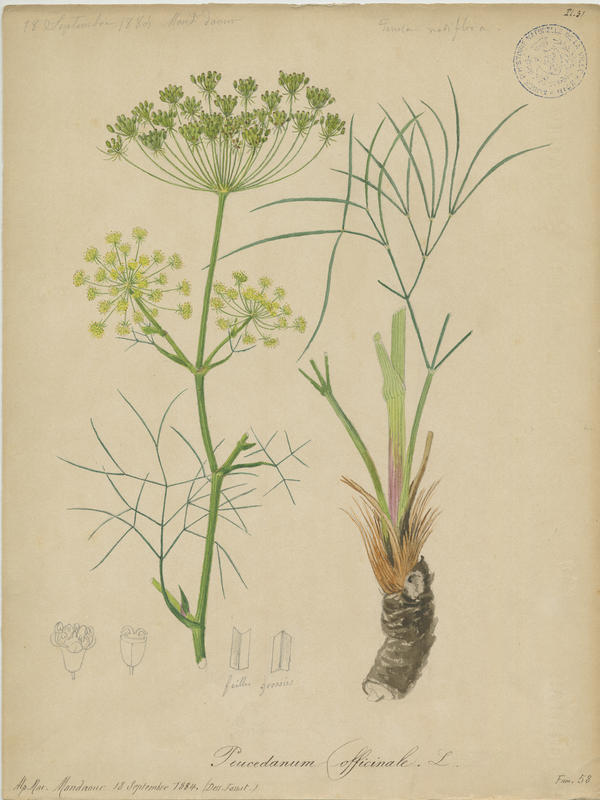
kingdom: Plantae
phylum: Tracheophyta
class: Magnoliopsida
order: Apiales
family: Apiaceae
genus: Peucedanum
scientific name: Peucedanum officinale
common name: Sulphurweed
